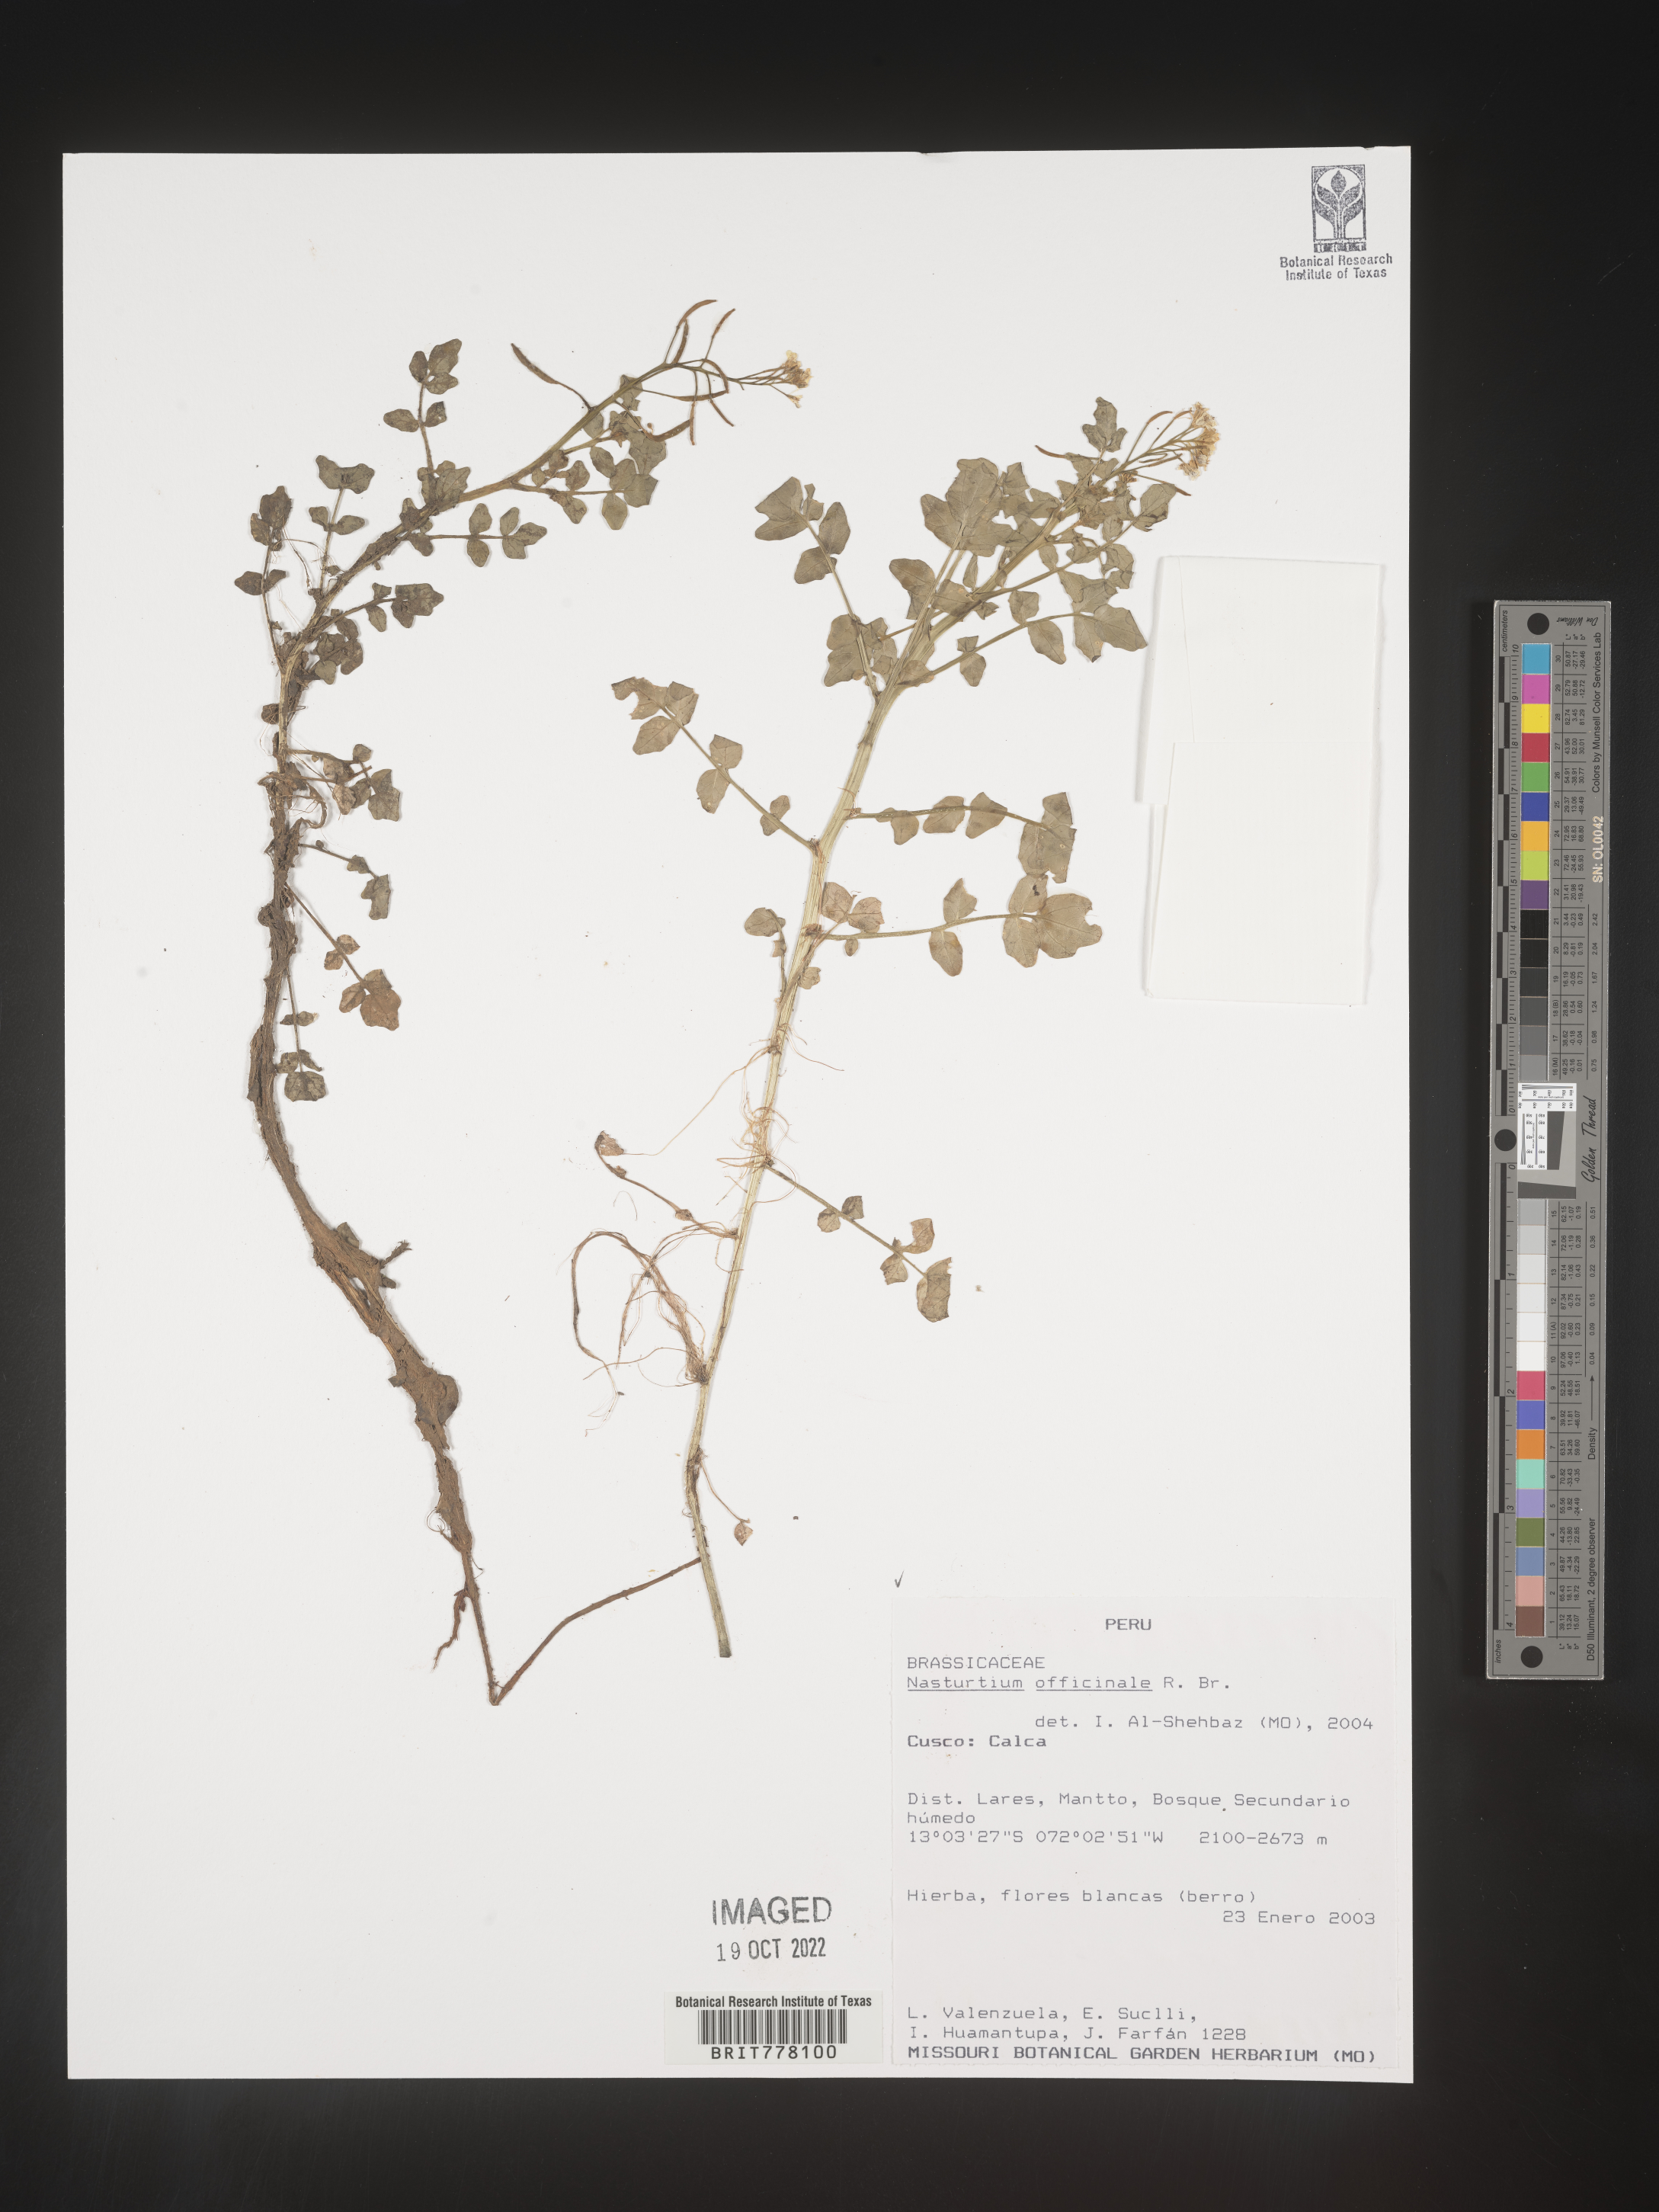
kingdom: Plantae
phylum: Tracheophyta
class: Magnoliopsida
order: Brassicales
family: Brassicaceae
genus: Nasturtium
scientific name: Nasturtium
